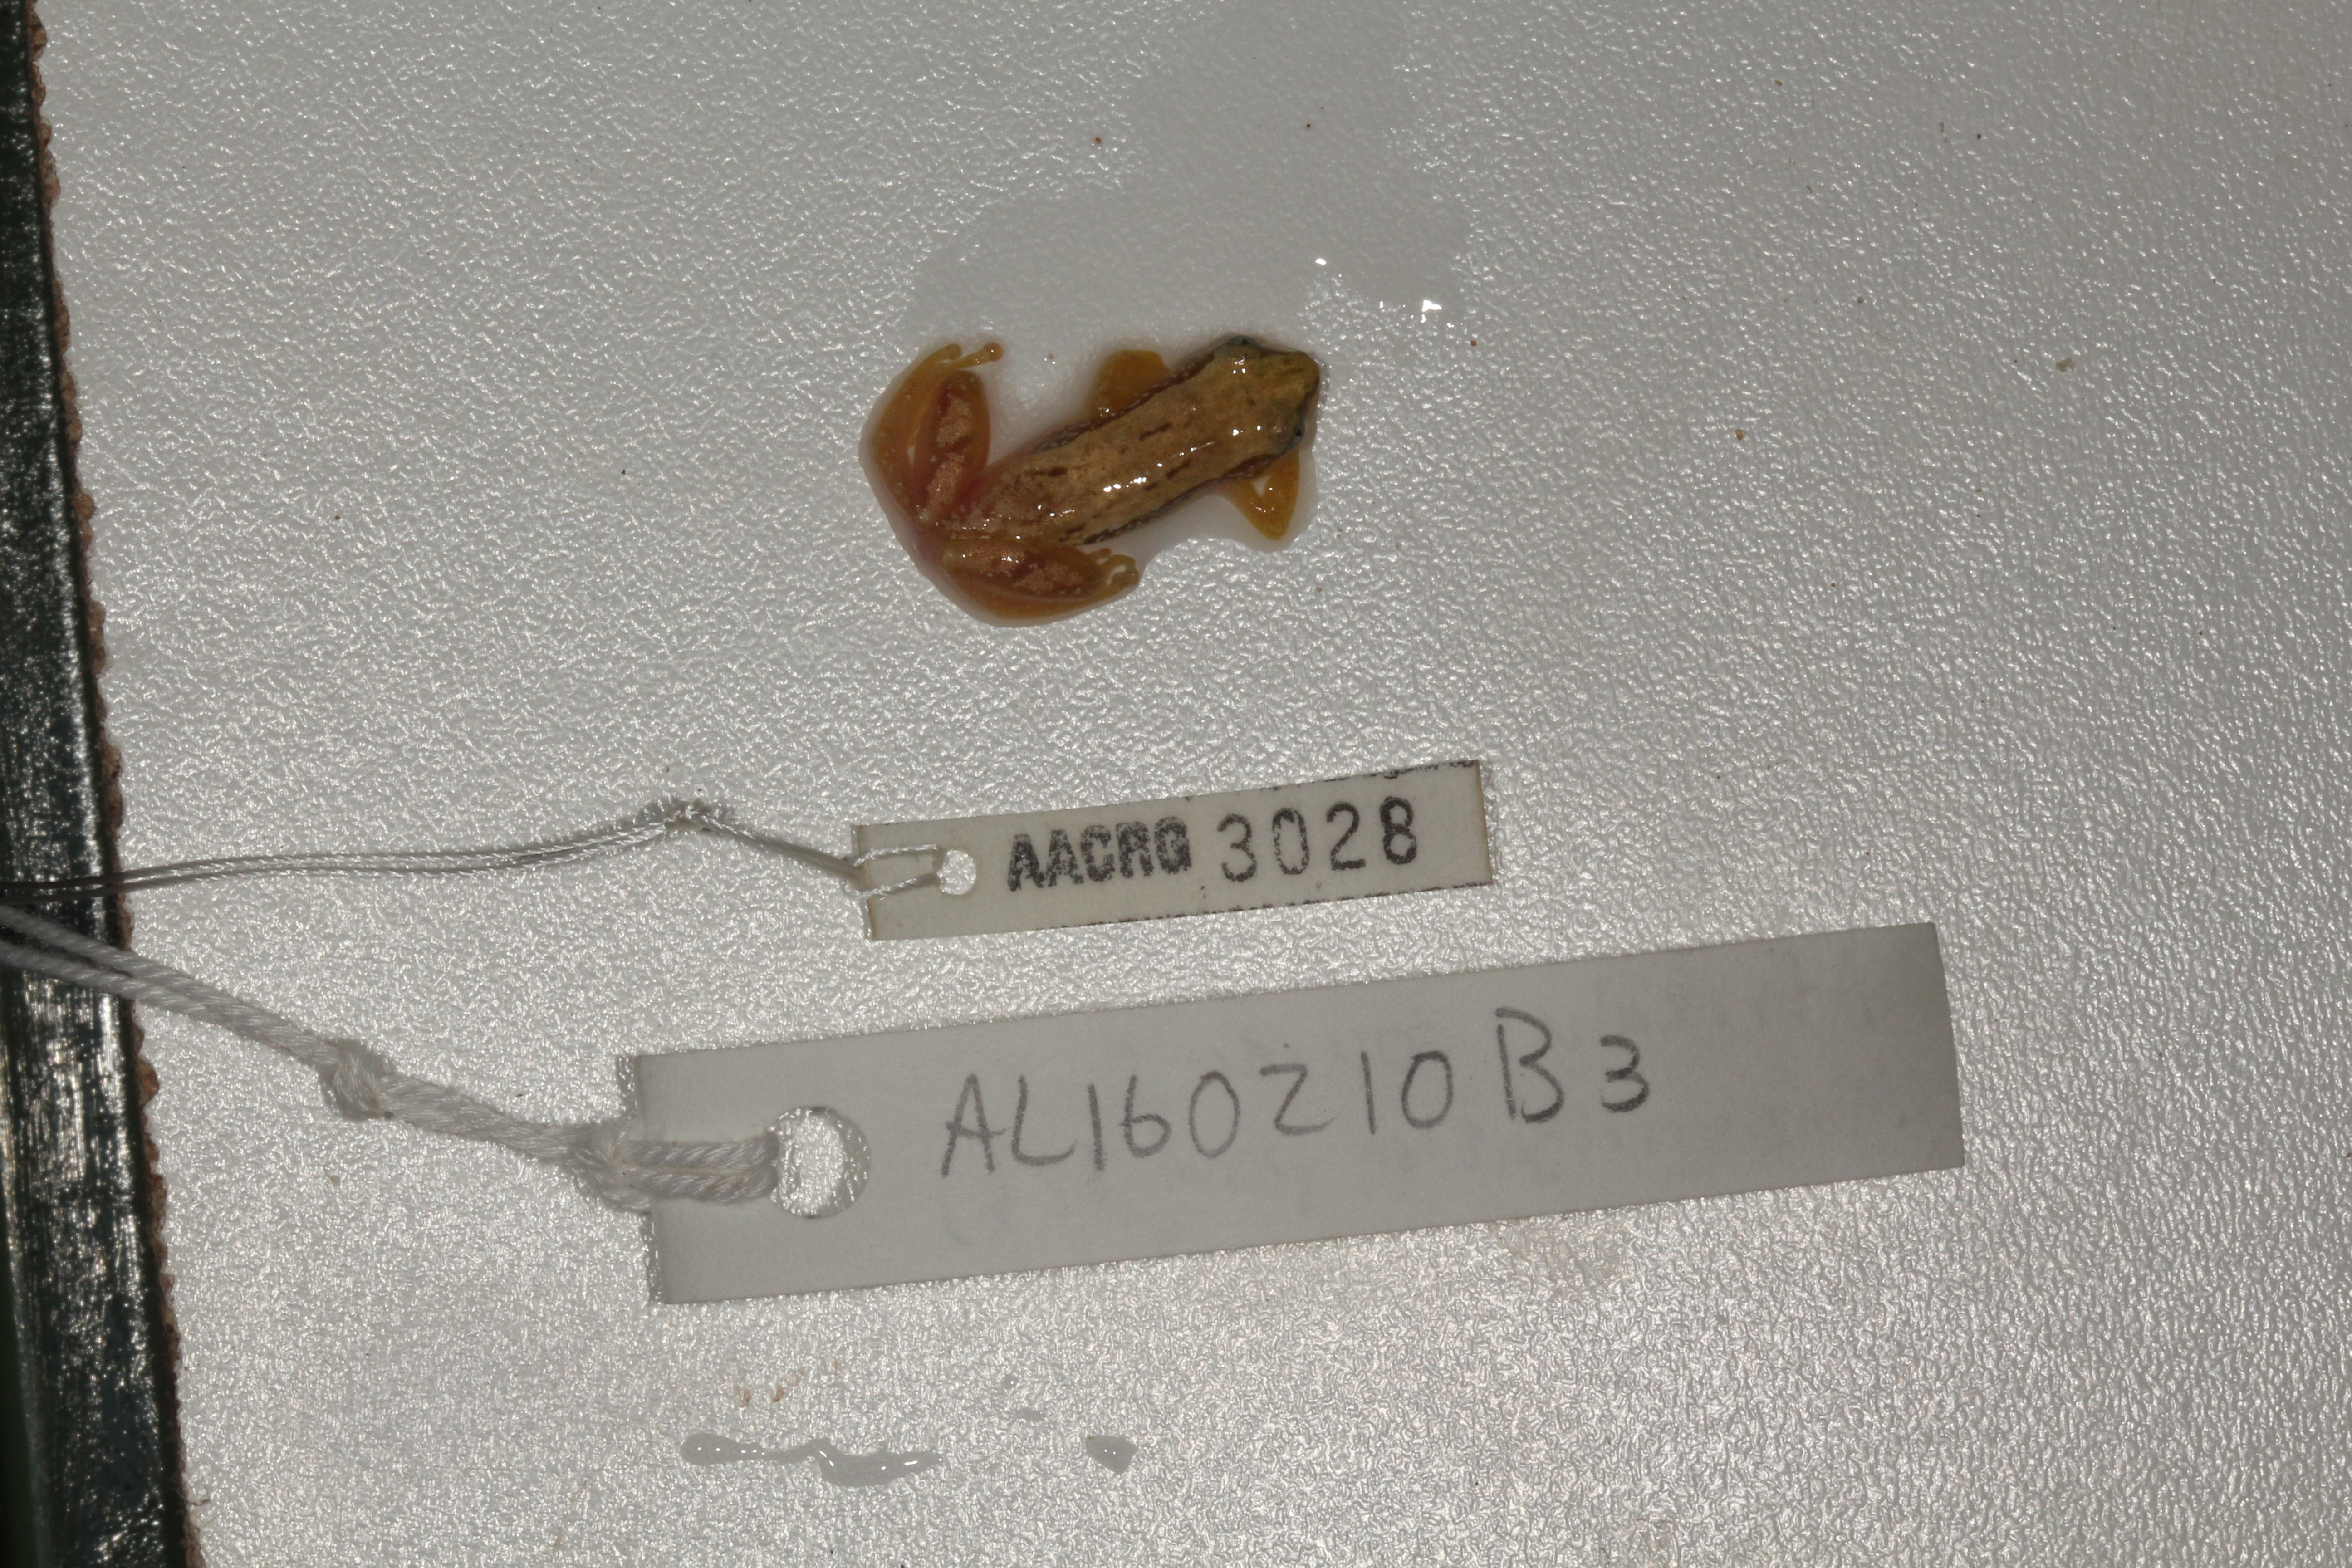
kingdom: Animalia
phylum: Chordata
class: Amphibia
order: Anura
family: Hyperoliidae
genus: Afrixalus
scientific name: Afrixalus aureus
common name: Golden banana frog
